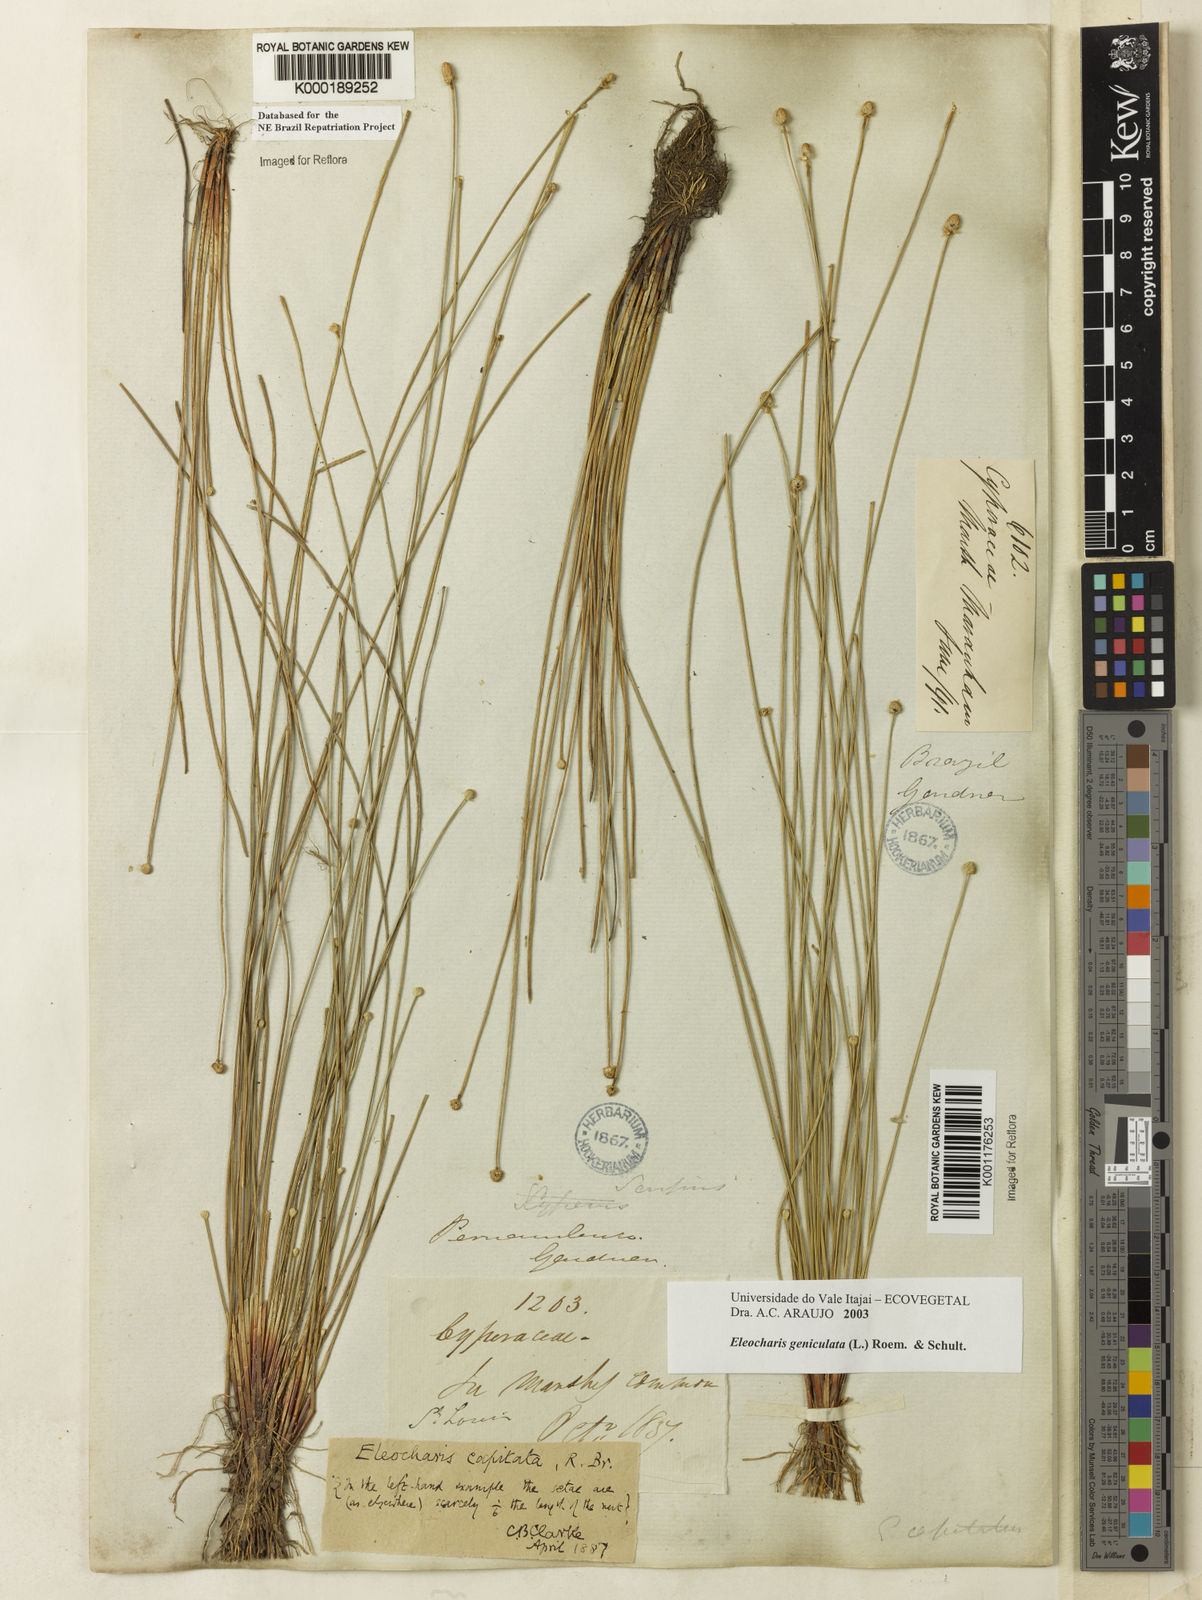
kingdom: Plantae
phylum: Tracheophyta
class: Liliopsida
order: Poales
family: Cyperaceae
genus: Eleocharis
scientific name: Eleocharis geniculata
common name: Canada spikesedge
